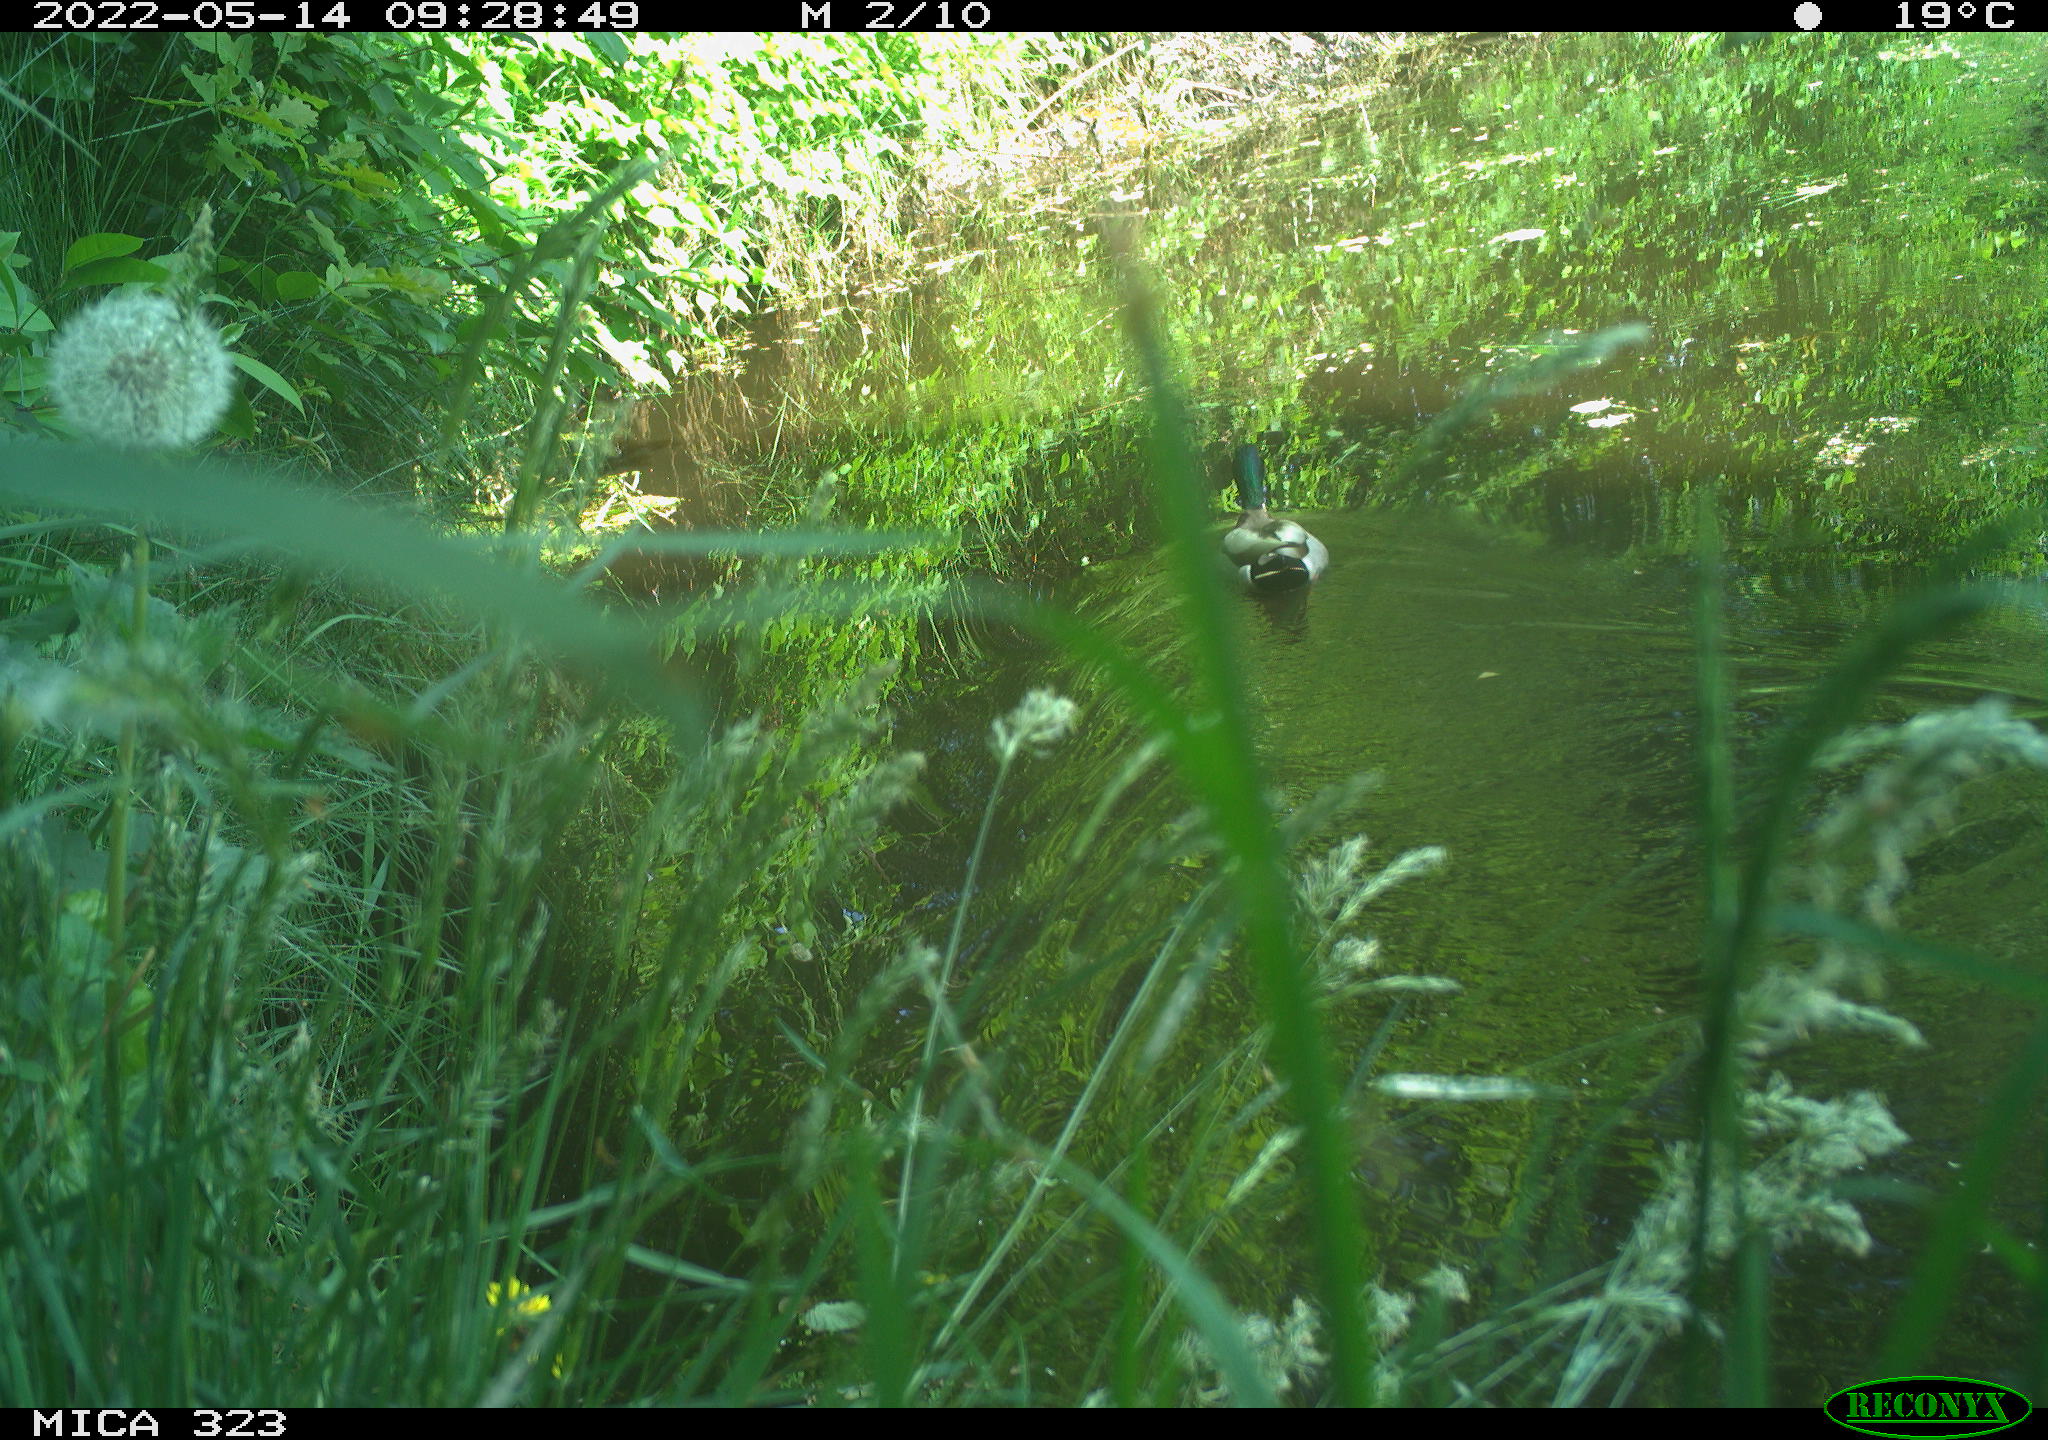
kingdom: Animalia
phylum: Chordata
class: Aves
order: Anseriformes
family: Anatidae
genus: Anas
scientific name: Anas platyrhynchos
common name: Mallard
